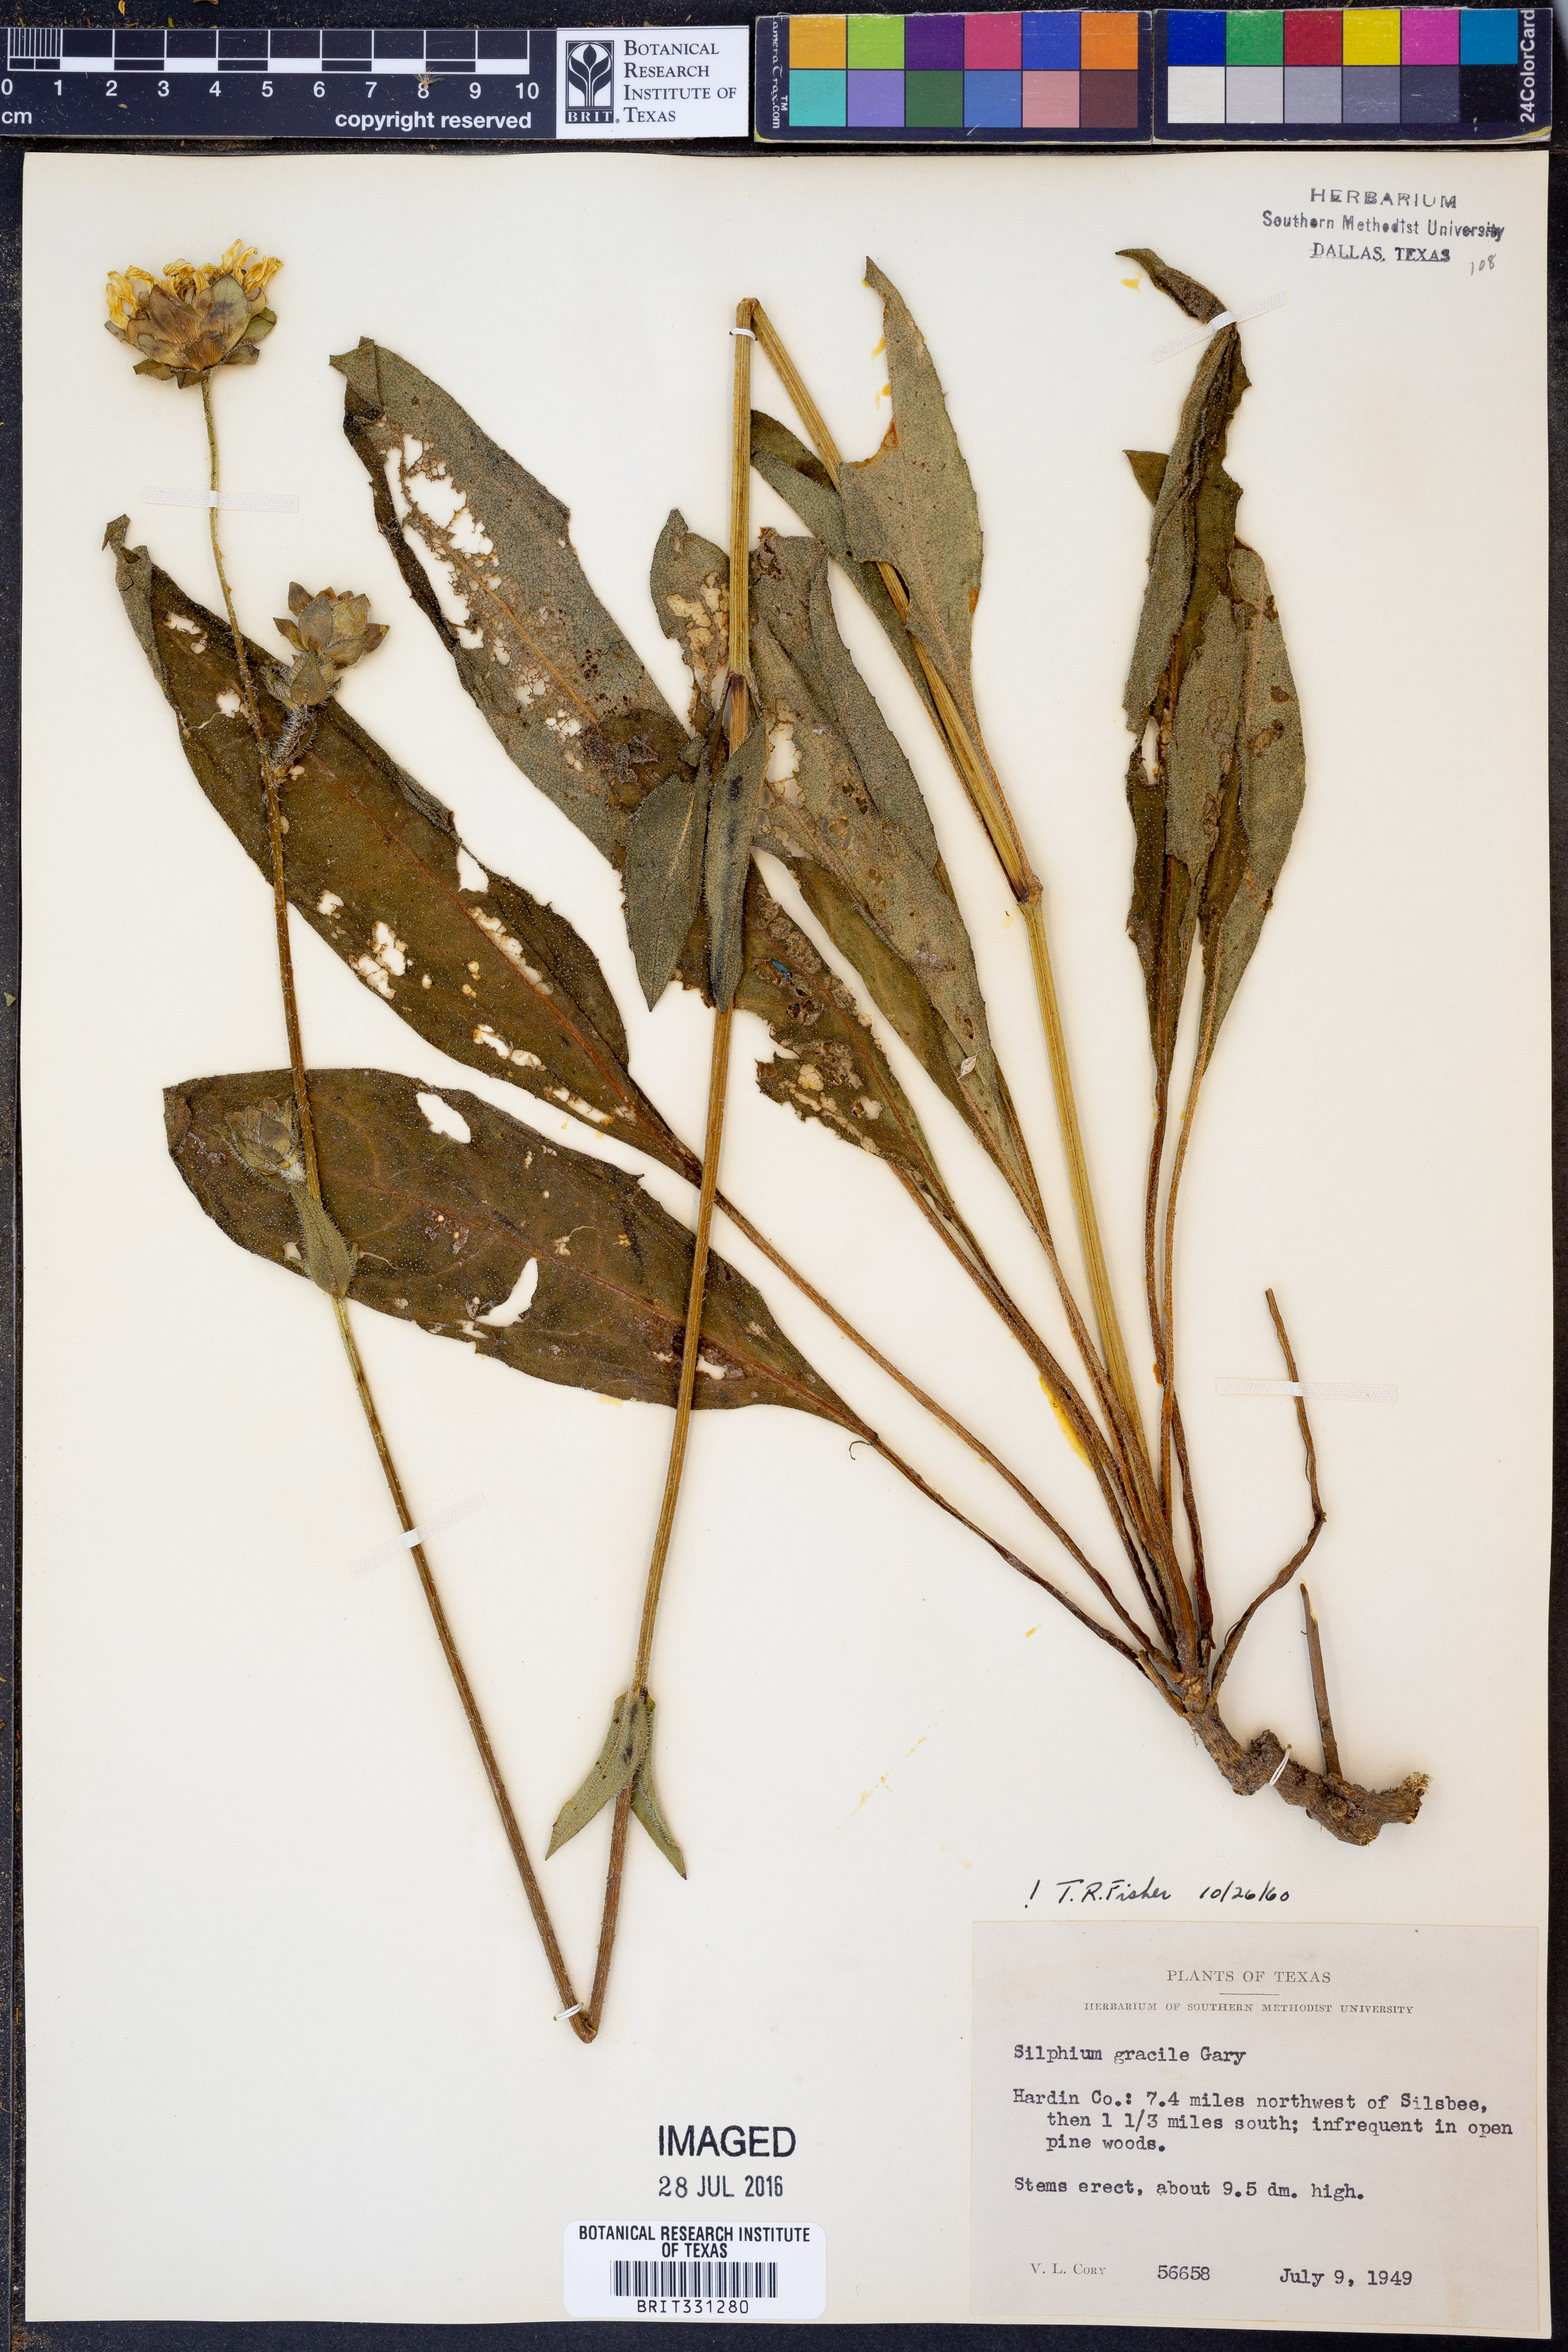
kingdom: Plantae
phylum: Tracheophyta
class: Magnoliopsida
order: Asterales
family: Asteraceae
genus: Silphium
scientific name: Silphium radula
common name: Roughleaf rosinweed
